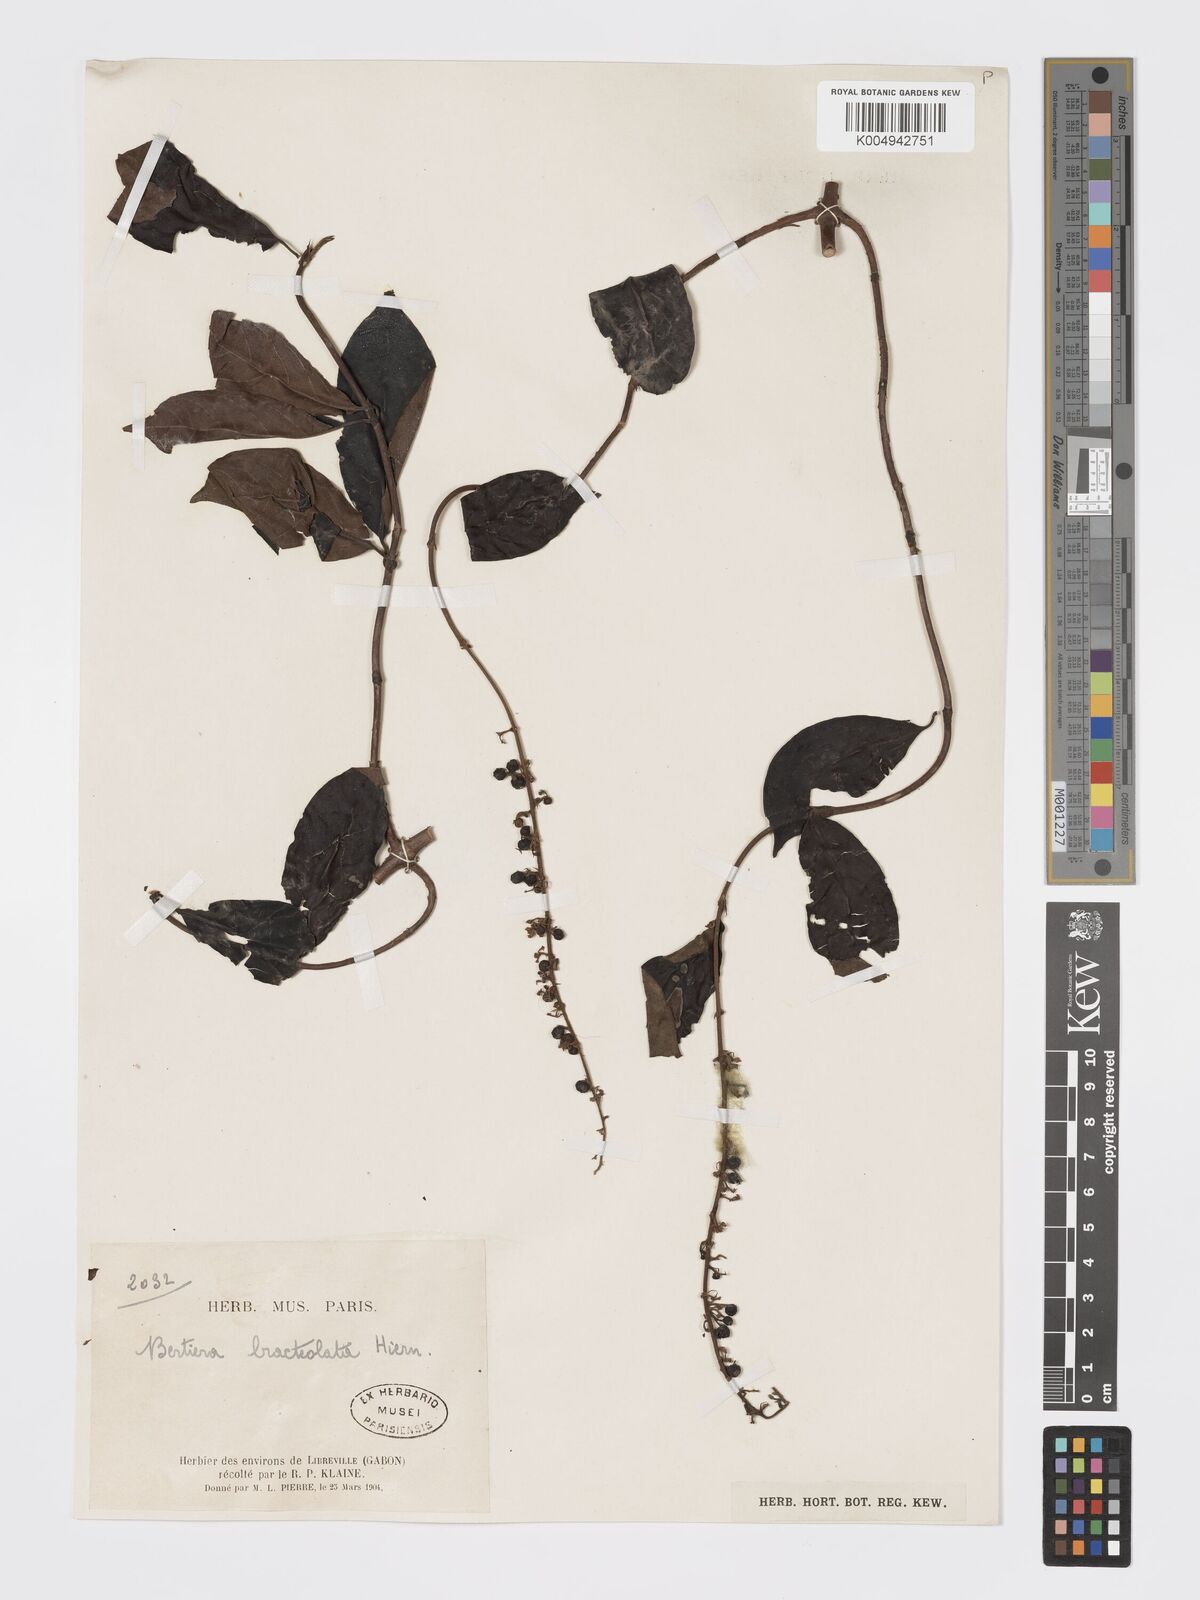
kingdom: Plantae
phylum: Tracheophyta
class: Magnoliopsida
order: Gentianales
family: Rubiaceae
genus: Bertiera
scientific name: Bertiera bracteolata
